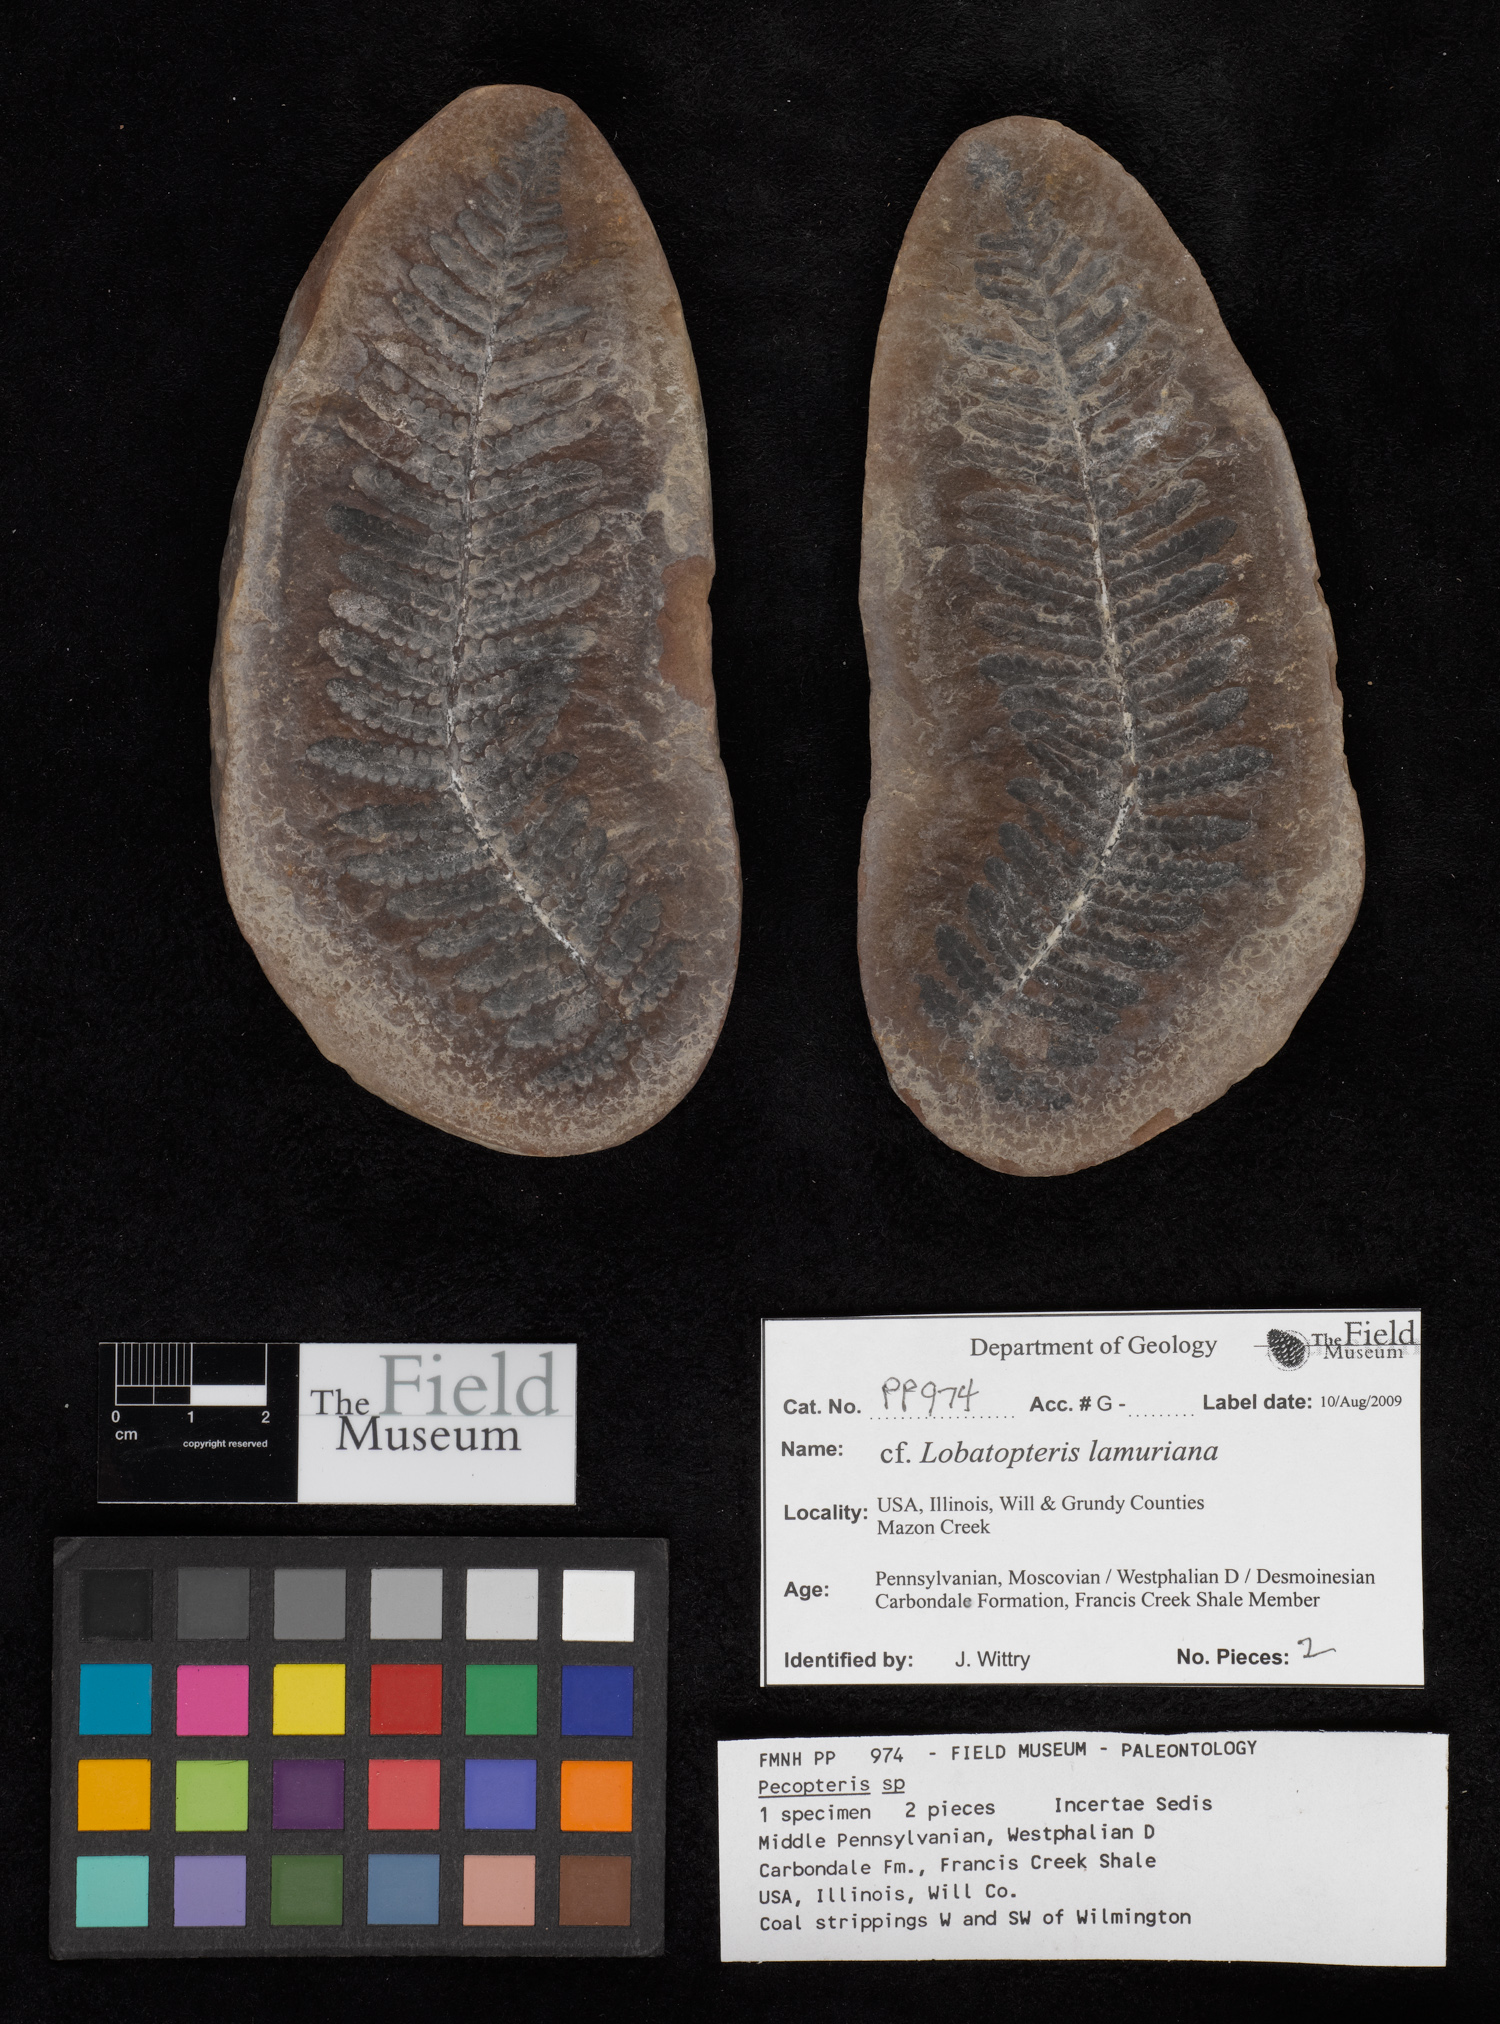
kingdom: Plantae
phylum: Tracheophyta
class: Polypodiopsida
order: Marattiales
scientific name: Marattiales
